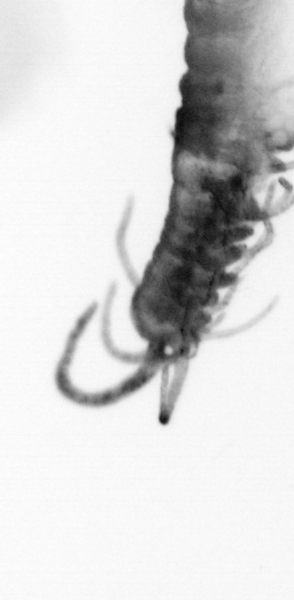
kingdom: Animalia
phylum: Annelida
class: Polychaeta
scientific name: Polychaeta
